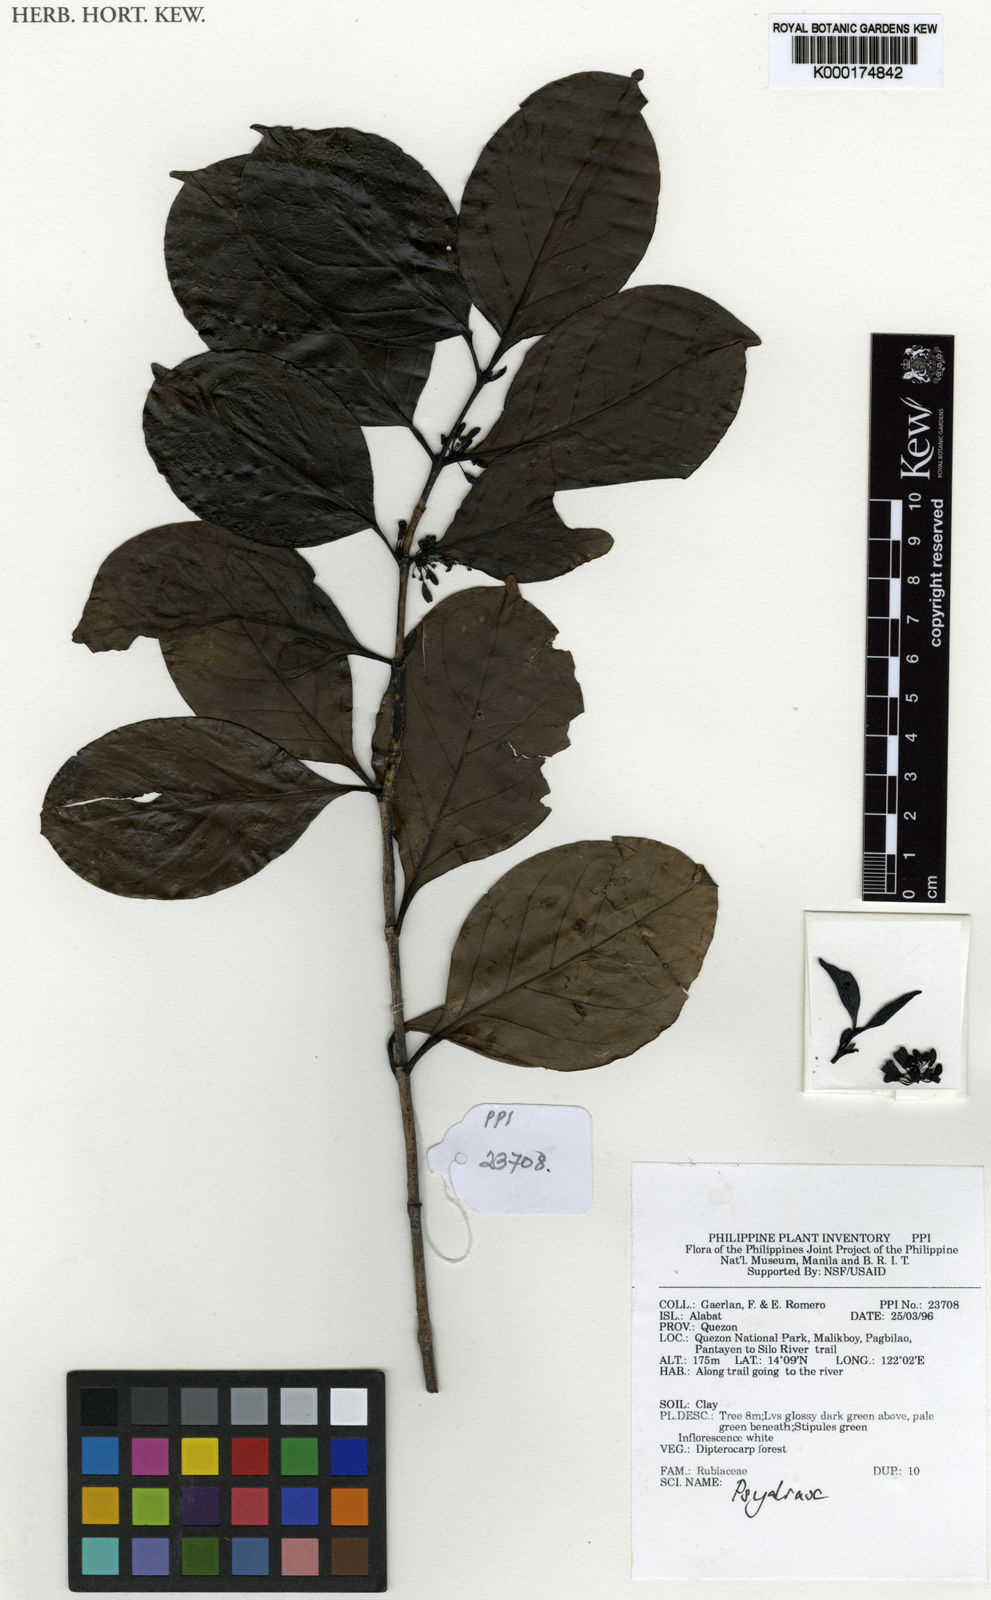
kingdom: Plantae
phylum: Tracheophyta
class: Magnoliopsida
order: Gentianales
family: Rubiaceae
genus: Psydrax
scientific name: Psydrax
